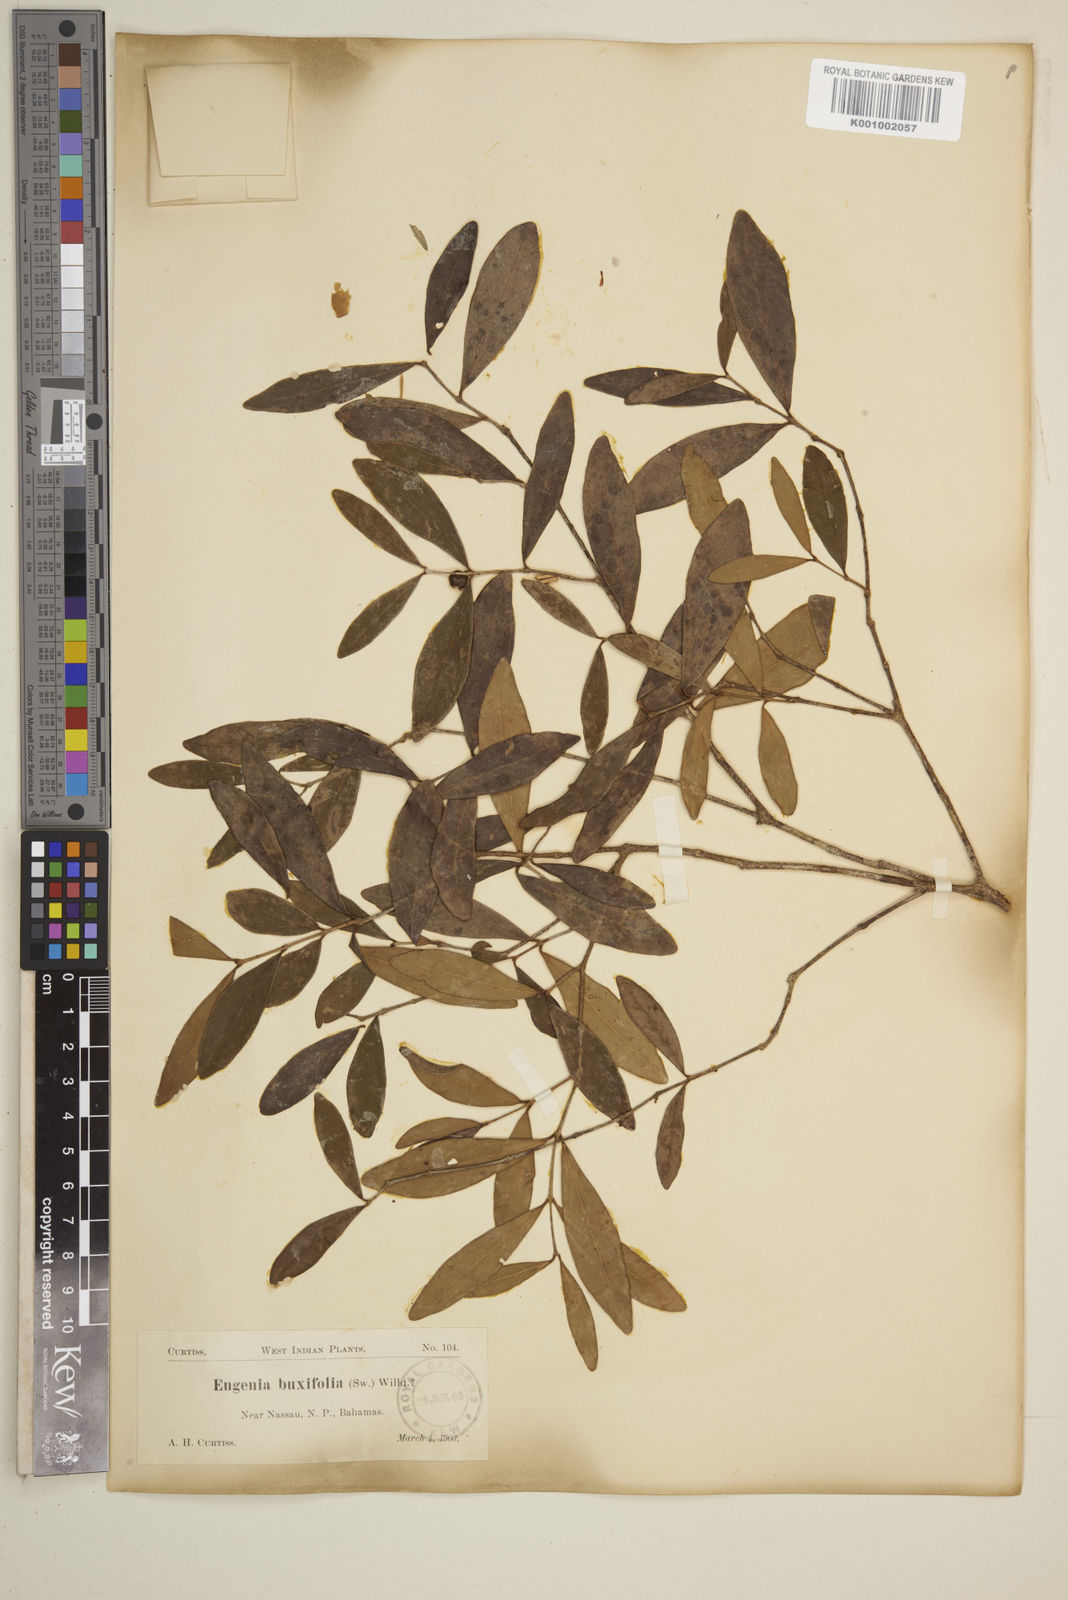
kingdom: Plantae
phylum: Tracheophyta
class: Magnoliopsida
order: Myrtales
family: Myrtaceae
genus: Eugenia
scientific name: Eugenia buxifolia
